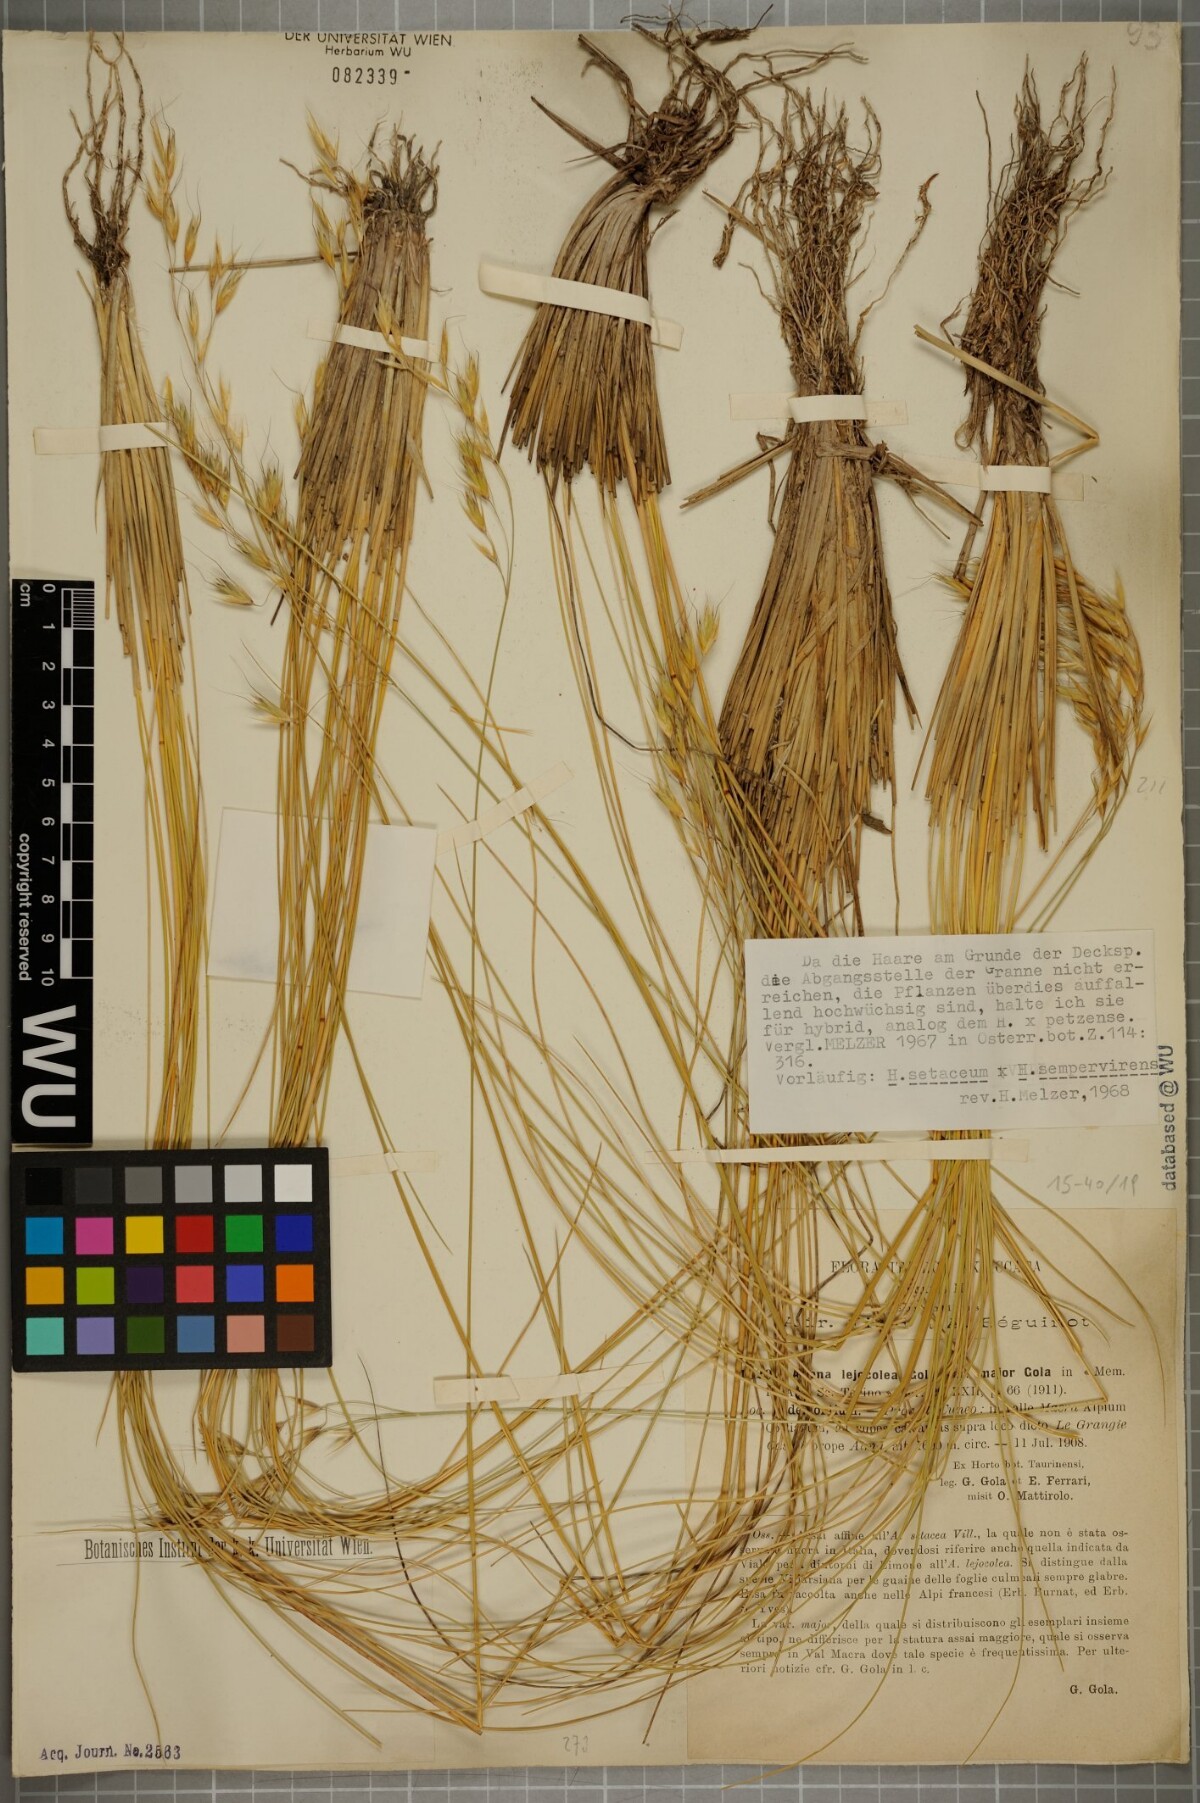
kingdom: Plantae
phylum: Tracheophyta
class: Liliopsida
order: Poales
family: Poaceae
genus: Helictotrichon
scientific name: Helictotrichon
